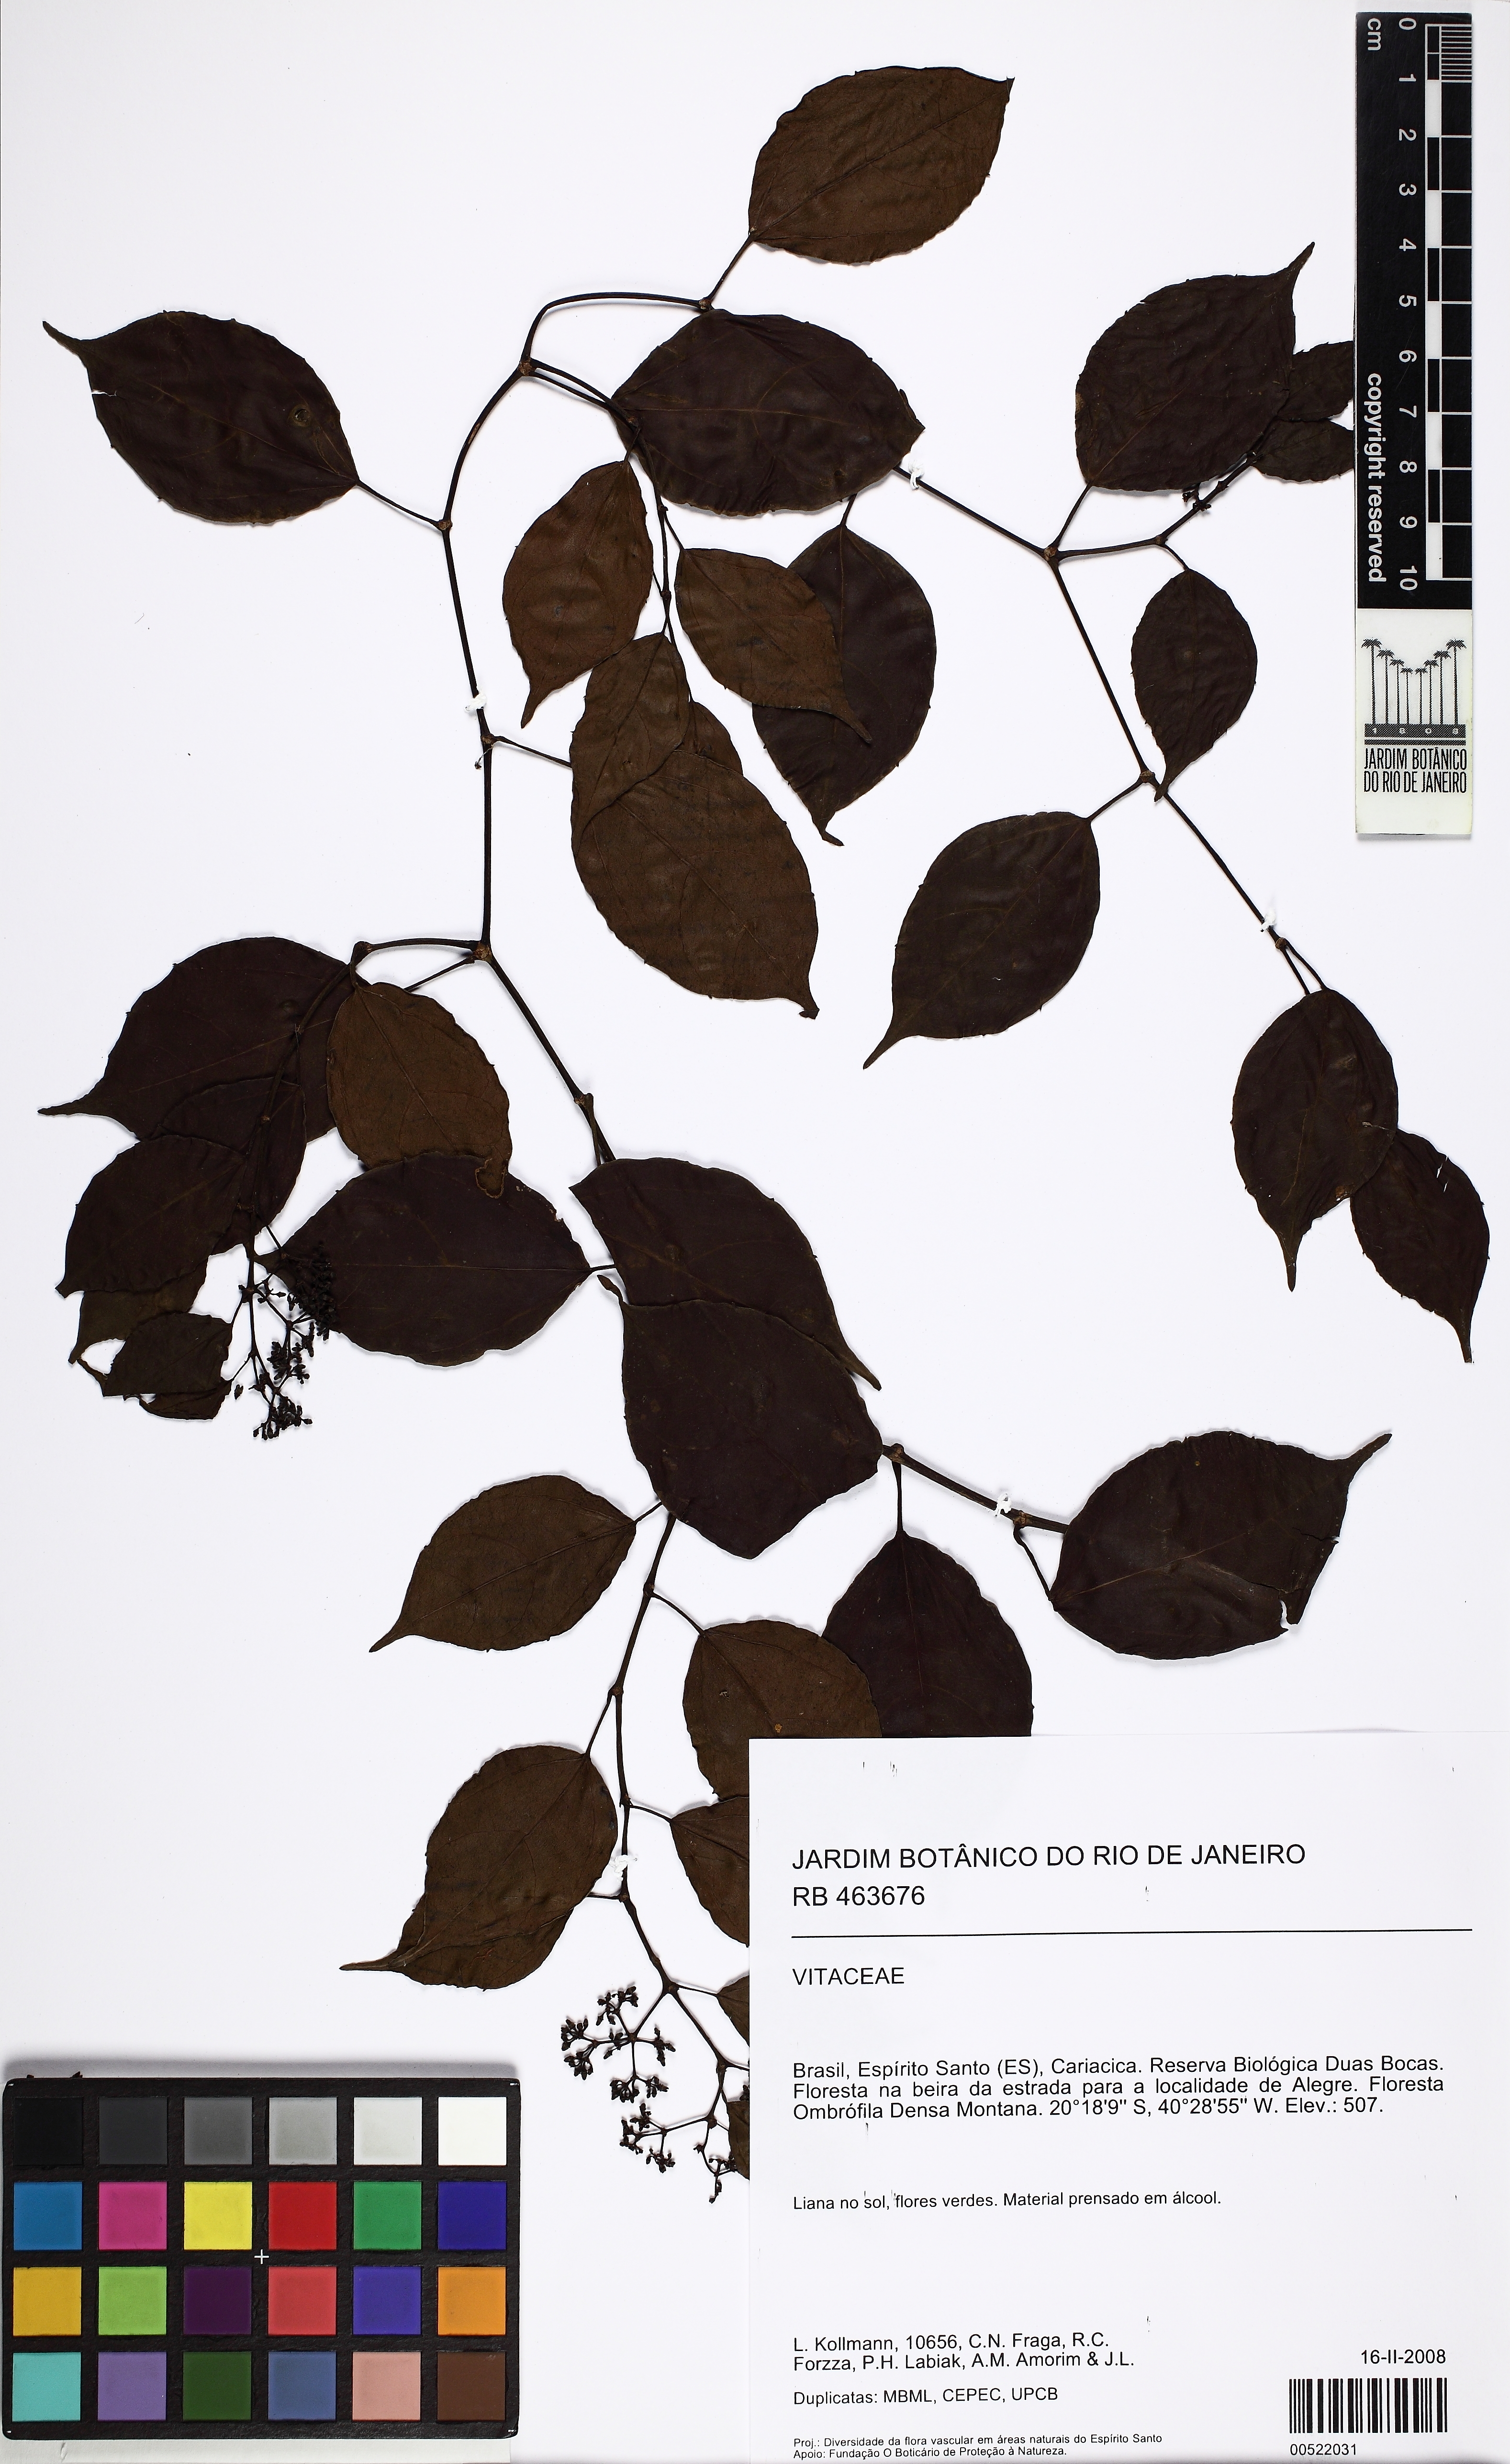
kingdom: Plantae
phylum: Tracheophyta
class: Magnoliopsida
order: Vitales
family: Vitaceae
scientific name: Vitaceae
